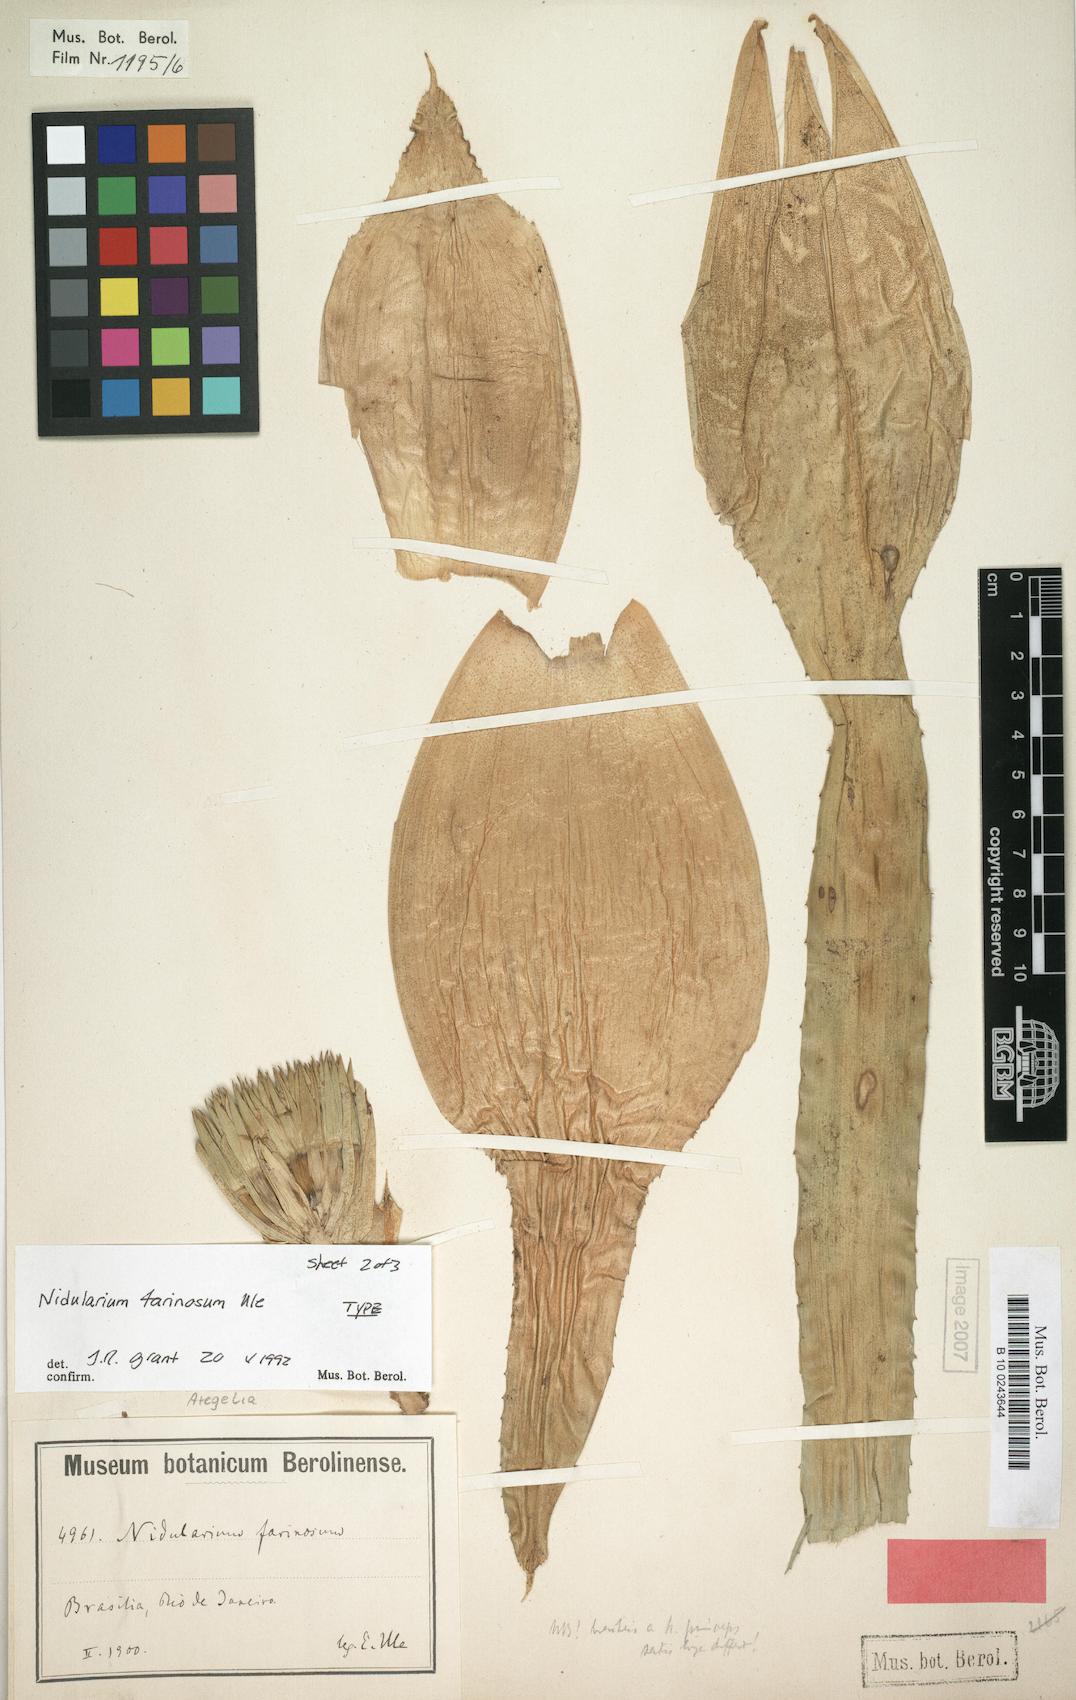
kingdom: Plantae
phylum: Tracheophyta
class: Liliopsida
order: Poales
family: Bromeliaceae
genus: Neoregelia
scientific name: Neoregelia farinosa
